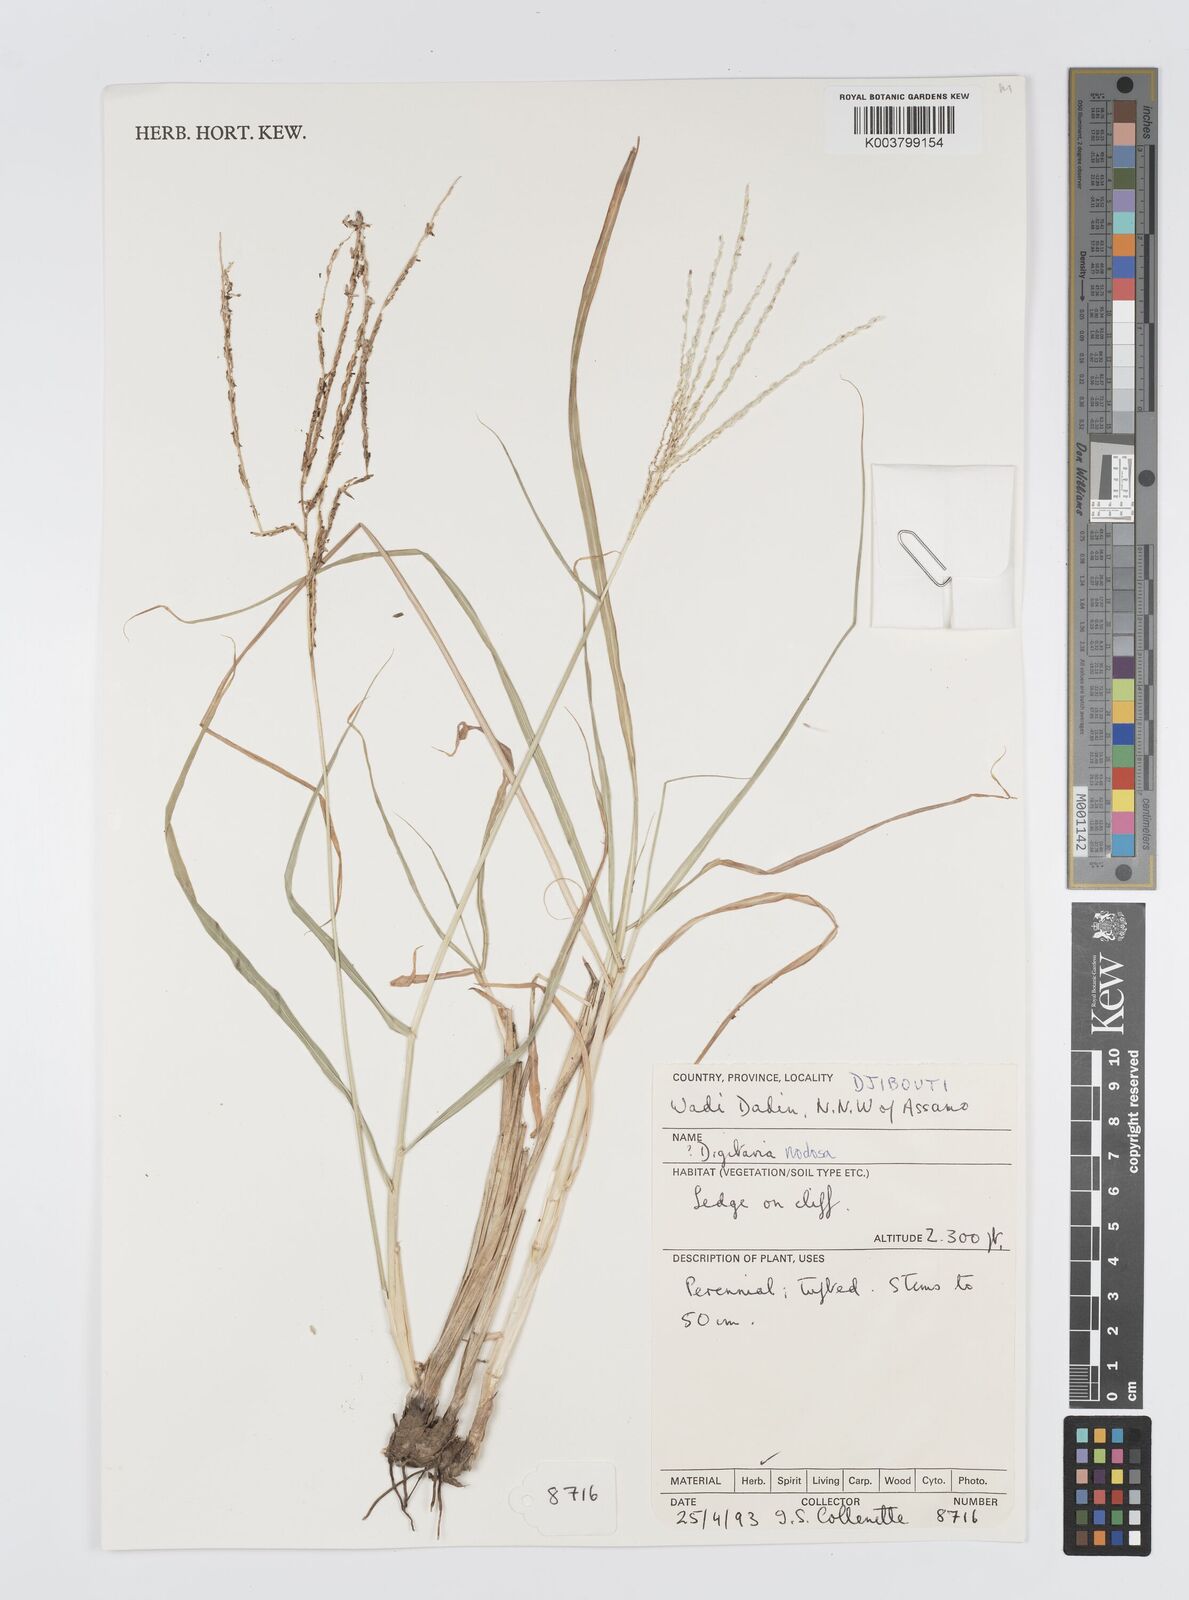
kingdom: Plantae
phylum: Tracheophyta
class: Liliopsida
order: Poales
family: Poaceae
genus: Digitaria
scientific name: Digitaria nodosa
